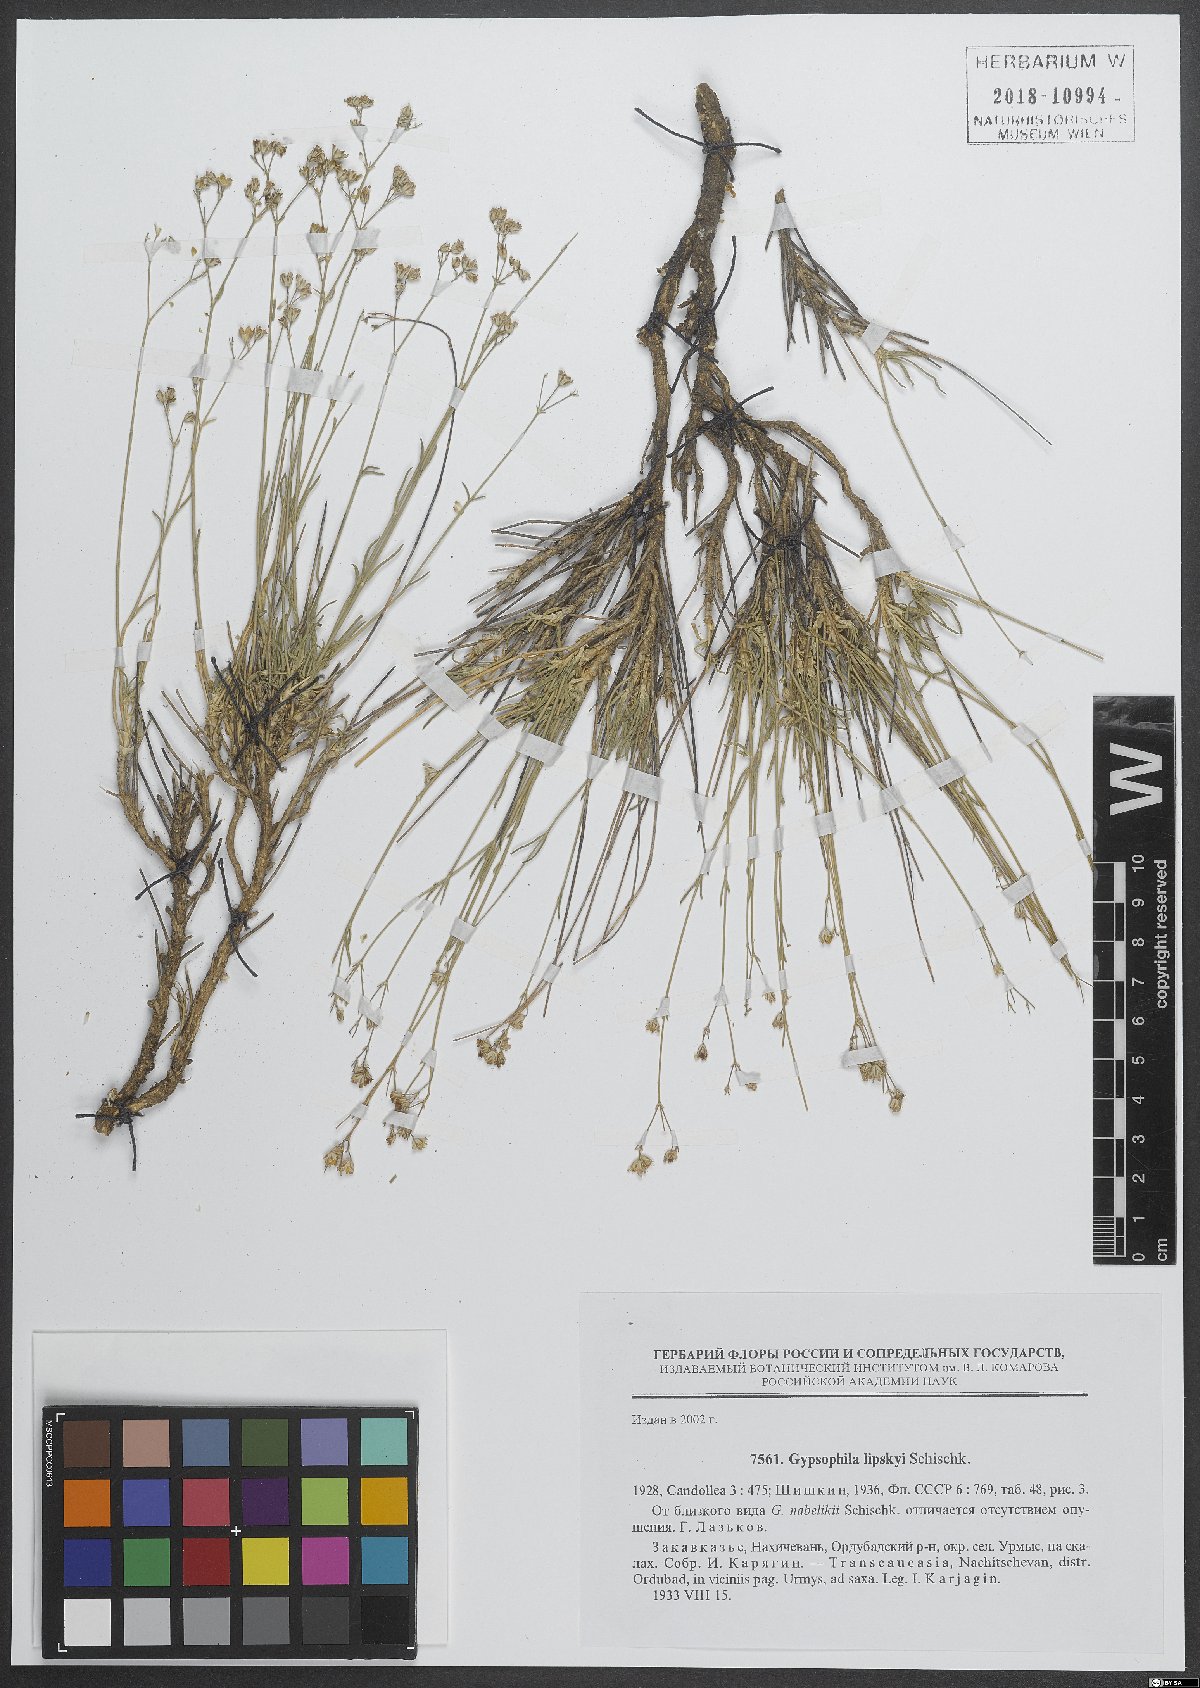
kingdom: Plantae
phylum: Tracheophyta
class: Magnoliopsida
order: Caryophyllales
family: Caryophyllaceae
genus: Gypsophila
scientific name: Gypsophila nabelekii
